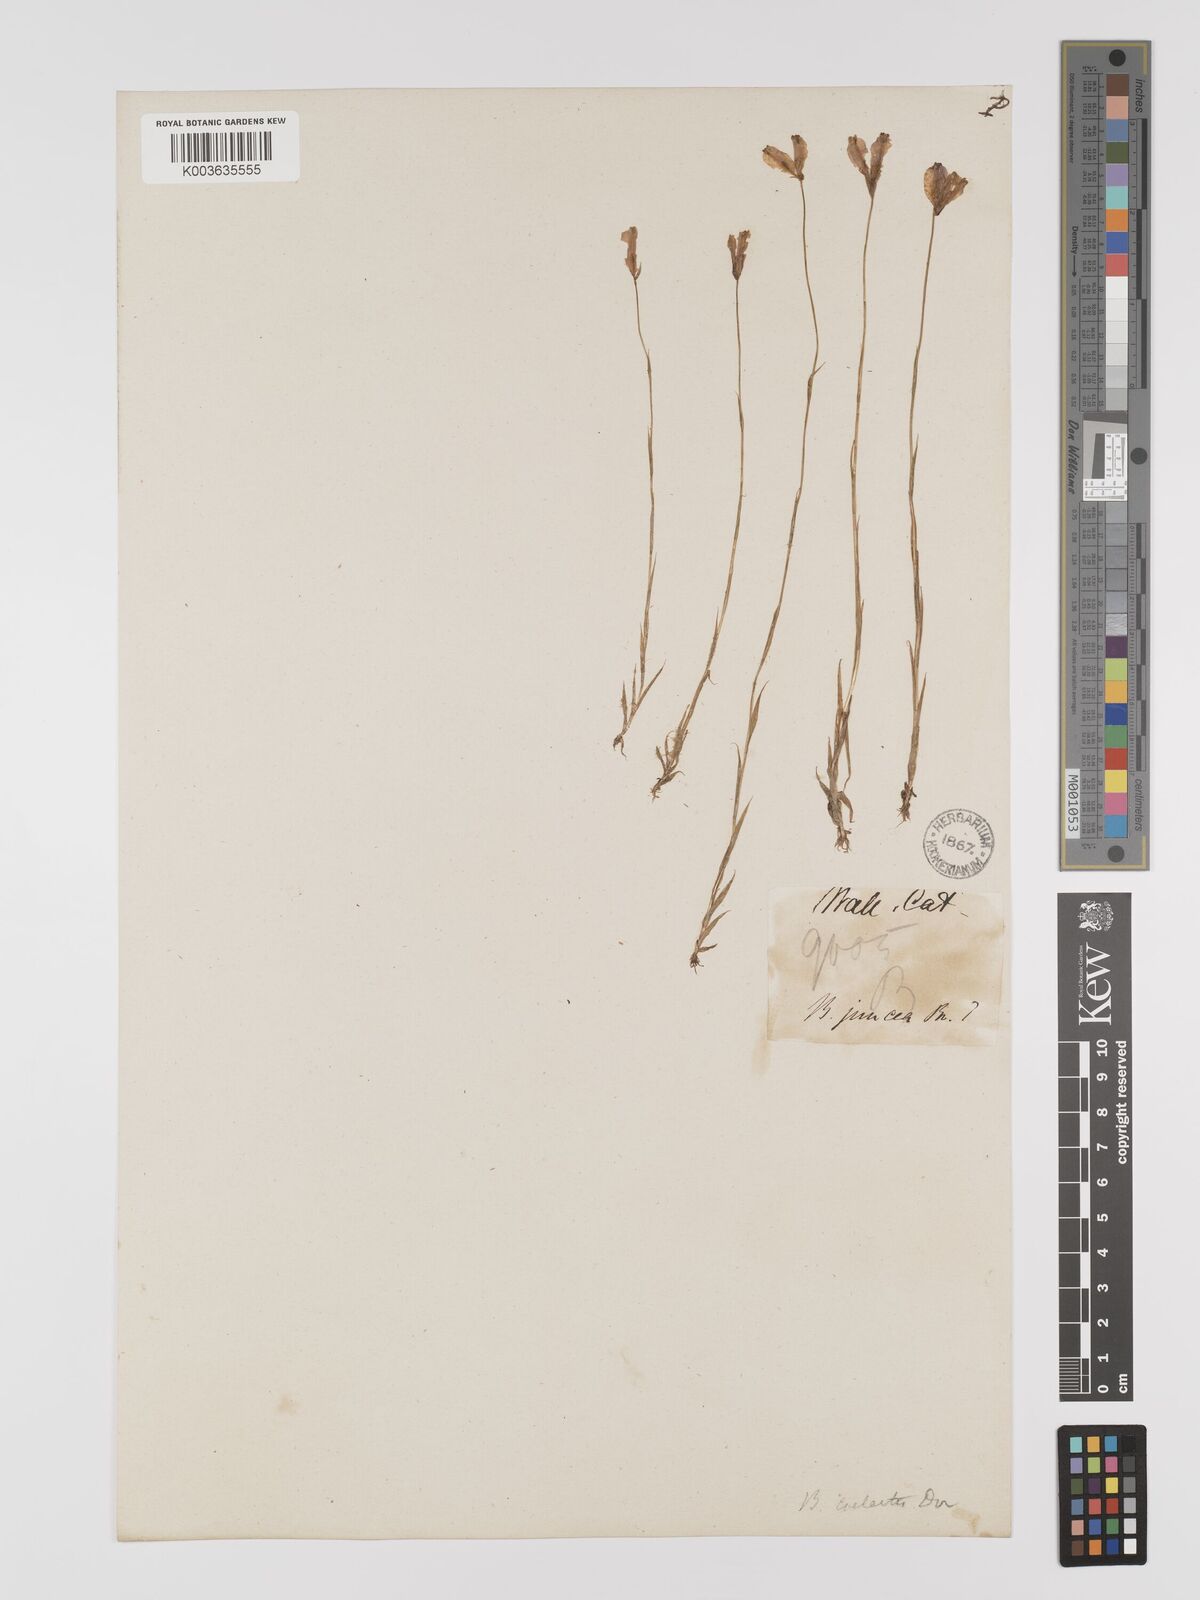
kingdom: Plantae
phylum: Tracheophyta
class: Liliopsida
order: Dioscoreales
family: Burmanniaceae
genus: Burmannia
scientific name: Burmannia coelestis
